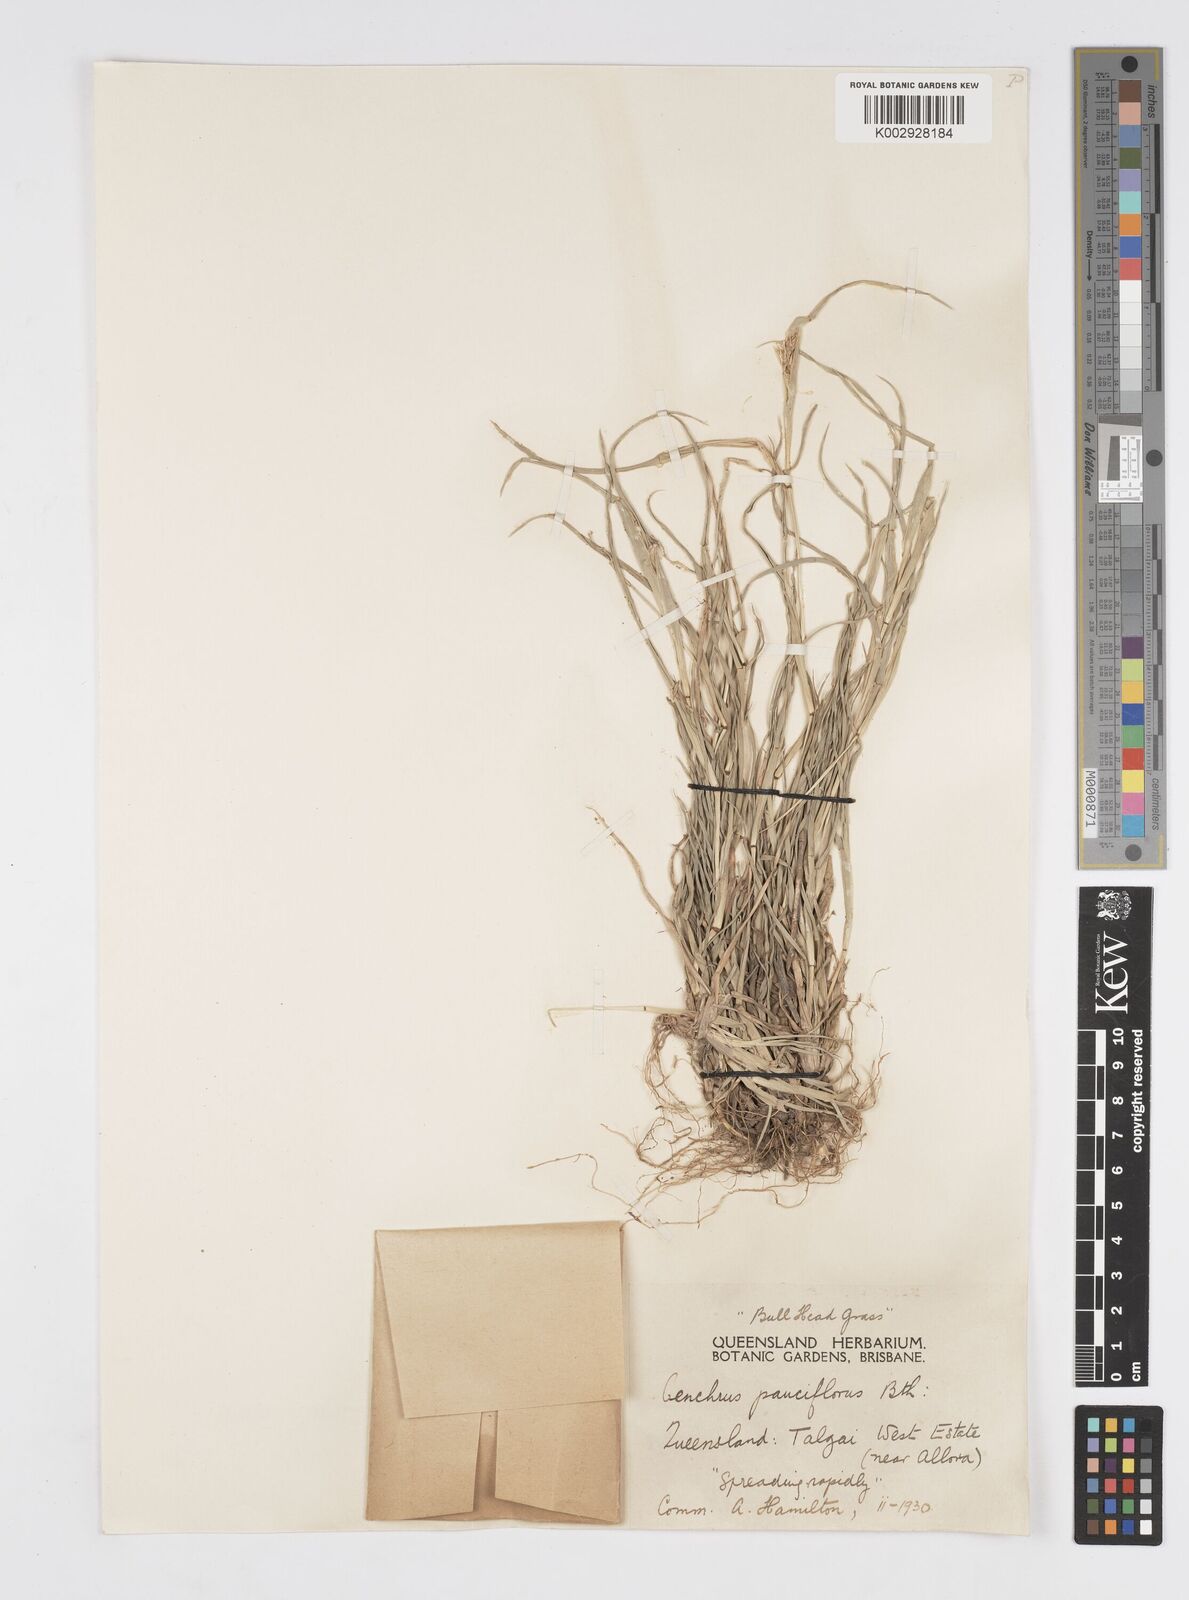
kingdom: Plantae
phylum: Tracheophyta
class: Liliopsida
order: Poales
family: Poaceae
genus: Cenchrus
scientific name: Cenchrus spinifex
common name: Coast sandbur
